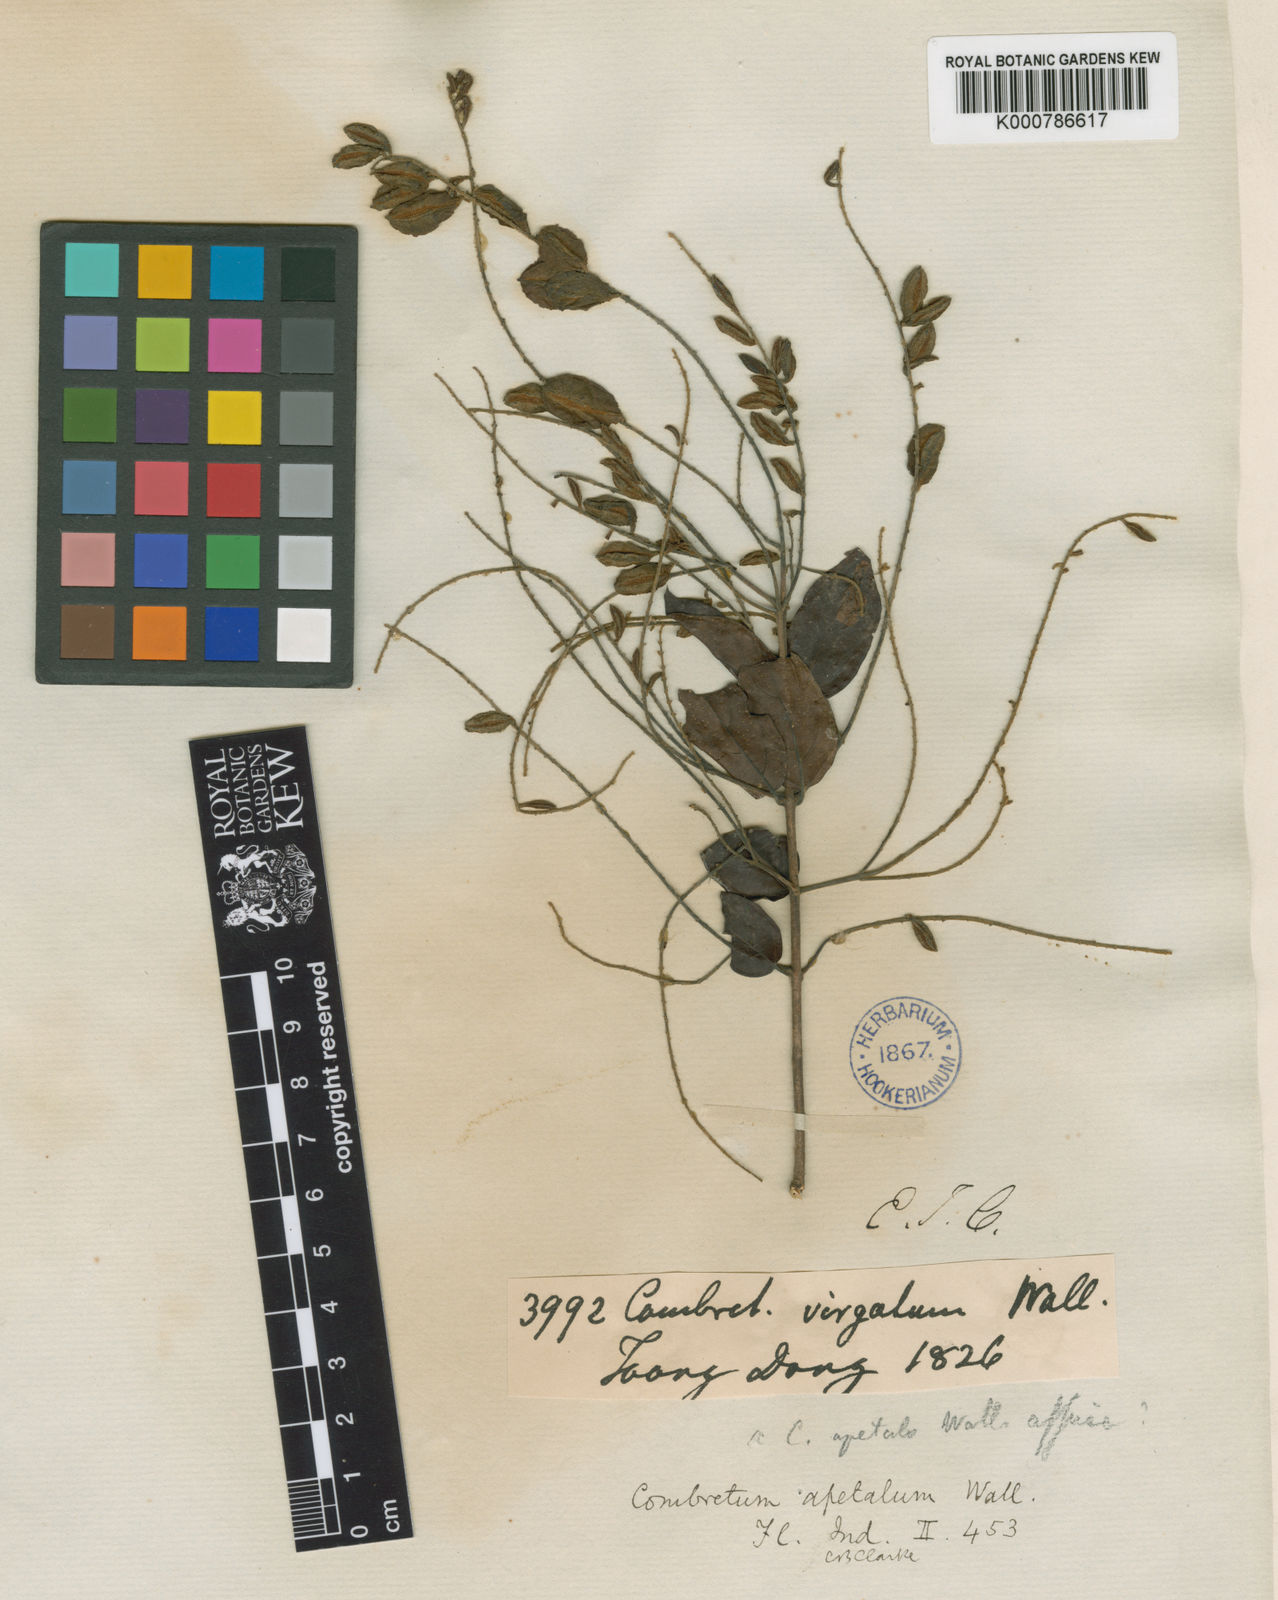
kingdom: Plantae
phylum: Tracheophyta
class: Magnoliopsida
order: Myrtales
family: Combretaceae
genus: Combretum
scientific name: Combretum
